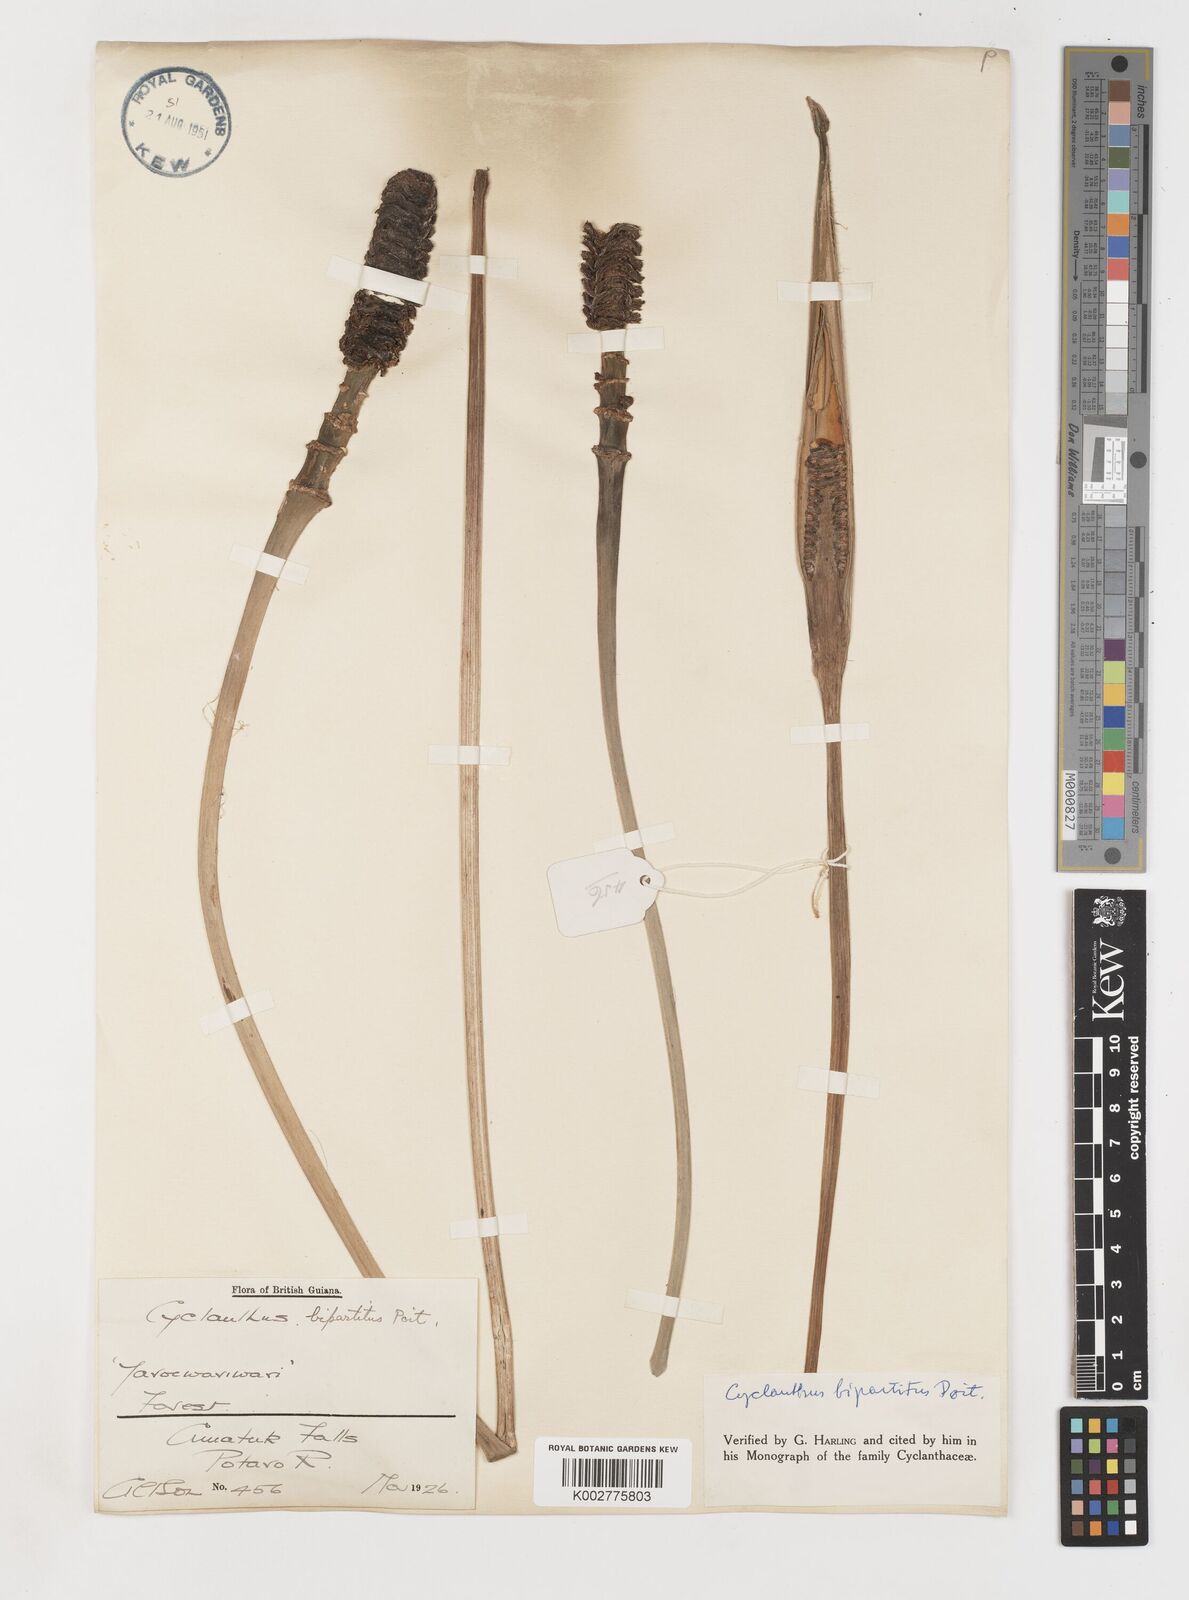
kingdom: Plantae
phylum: Tracheophyta
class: Liliopsida
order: Pandanales
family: Cyclanthaceae
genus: Cyclanthus
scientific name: Cyclanthus bipartitus
